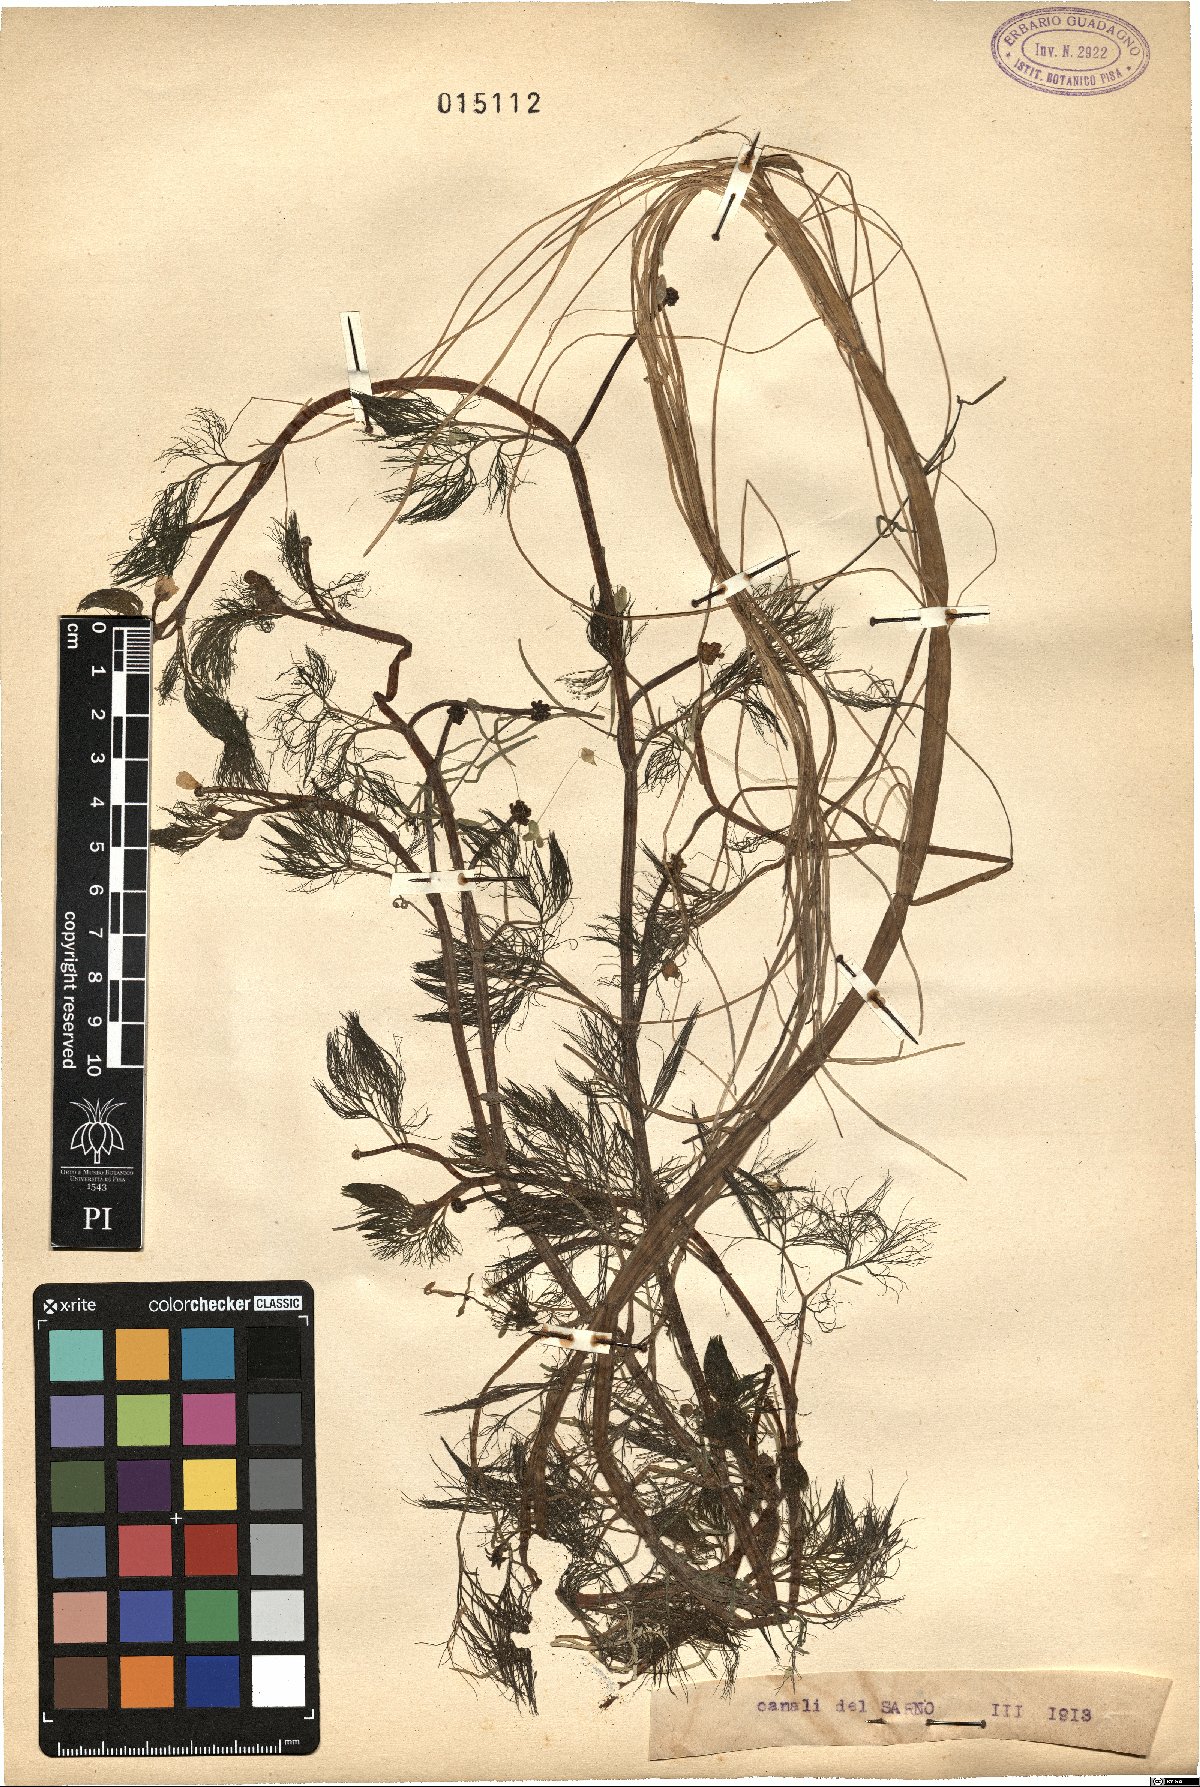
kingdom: Plantae
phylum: Tracheophyta
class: Magnoliopsida
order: Ranunculales
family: Ranunculaceae
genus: Ranunculus
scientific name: Ranunculus
